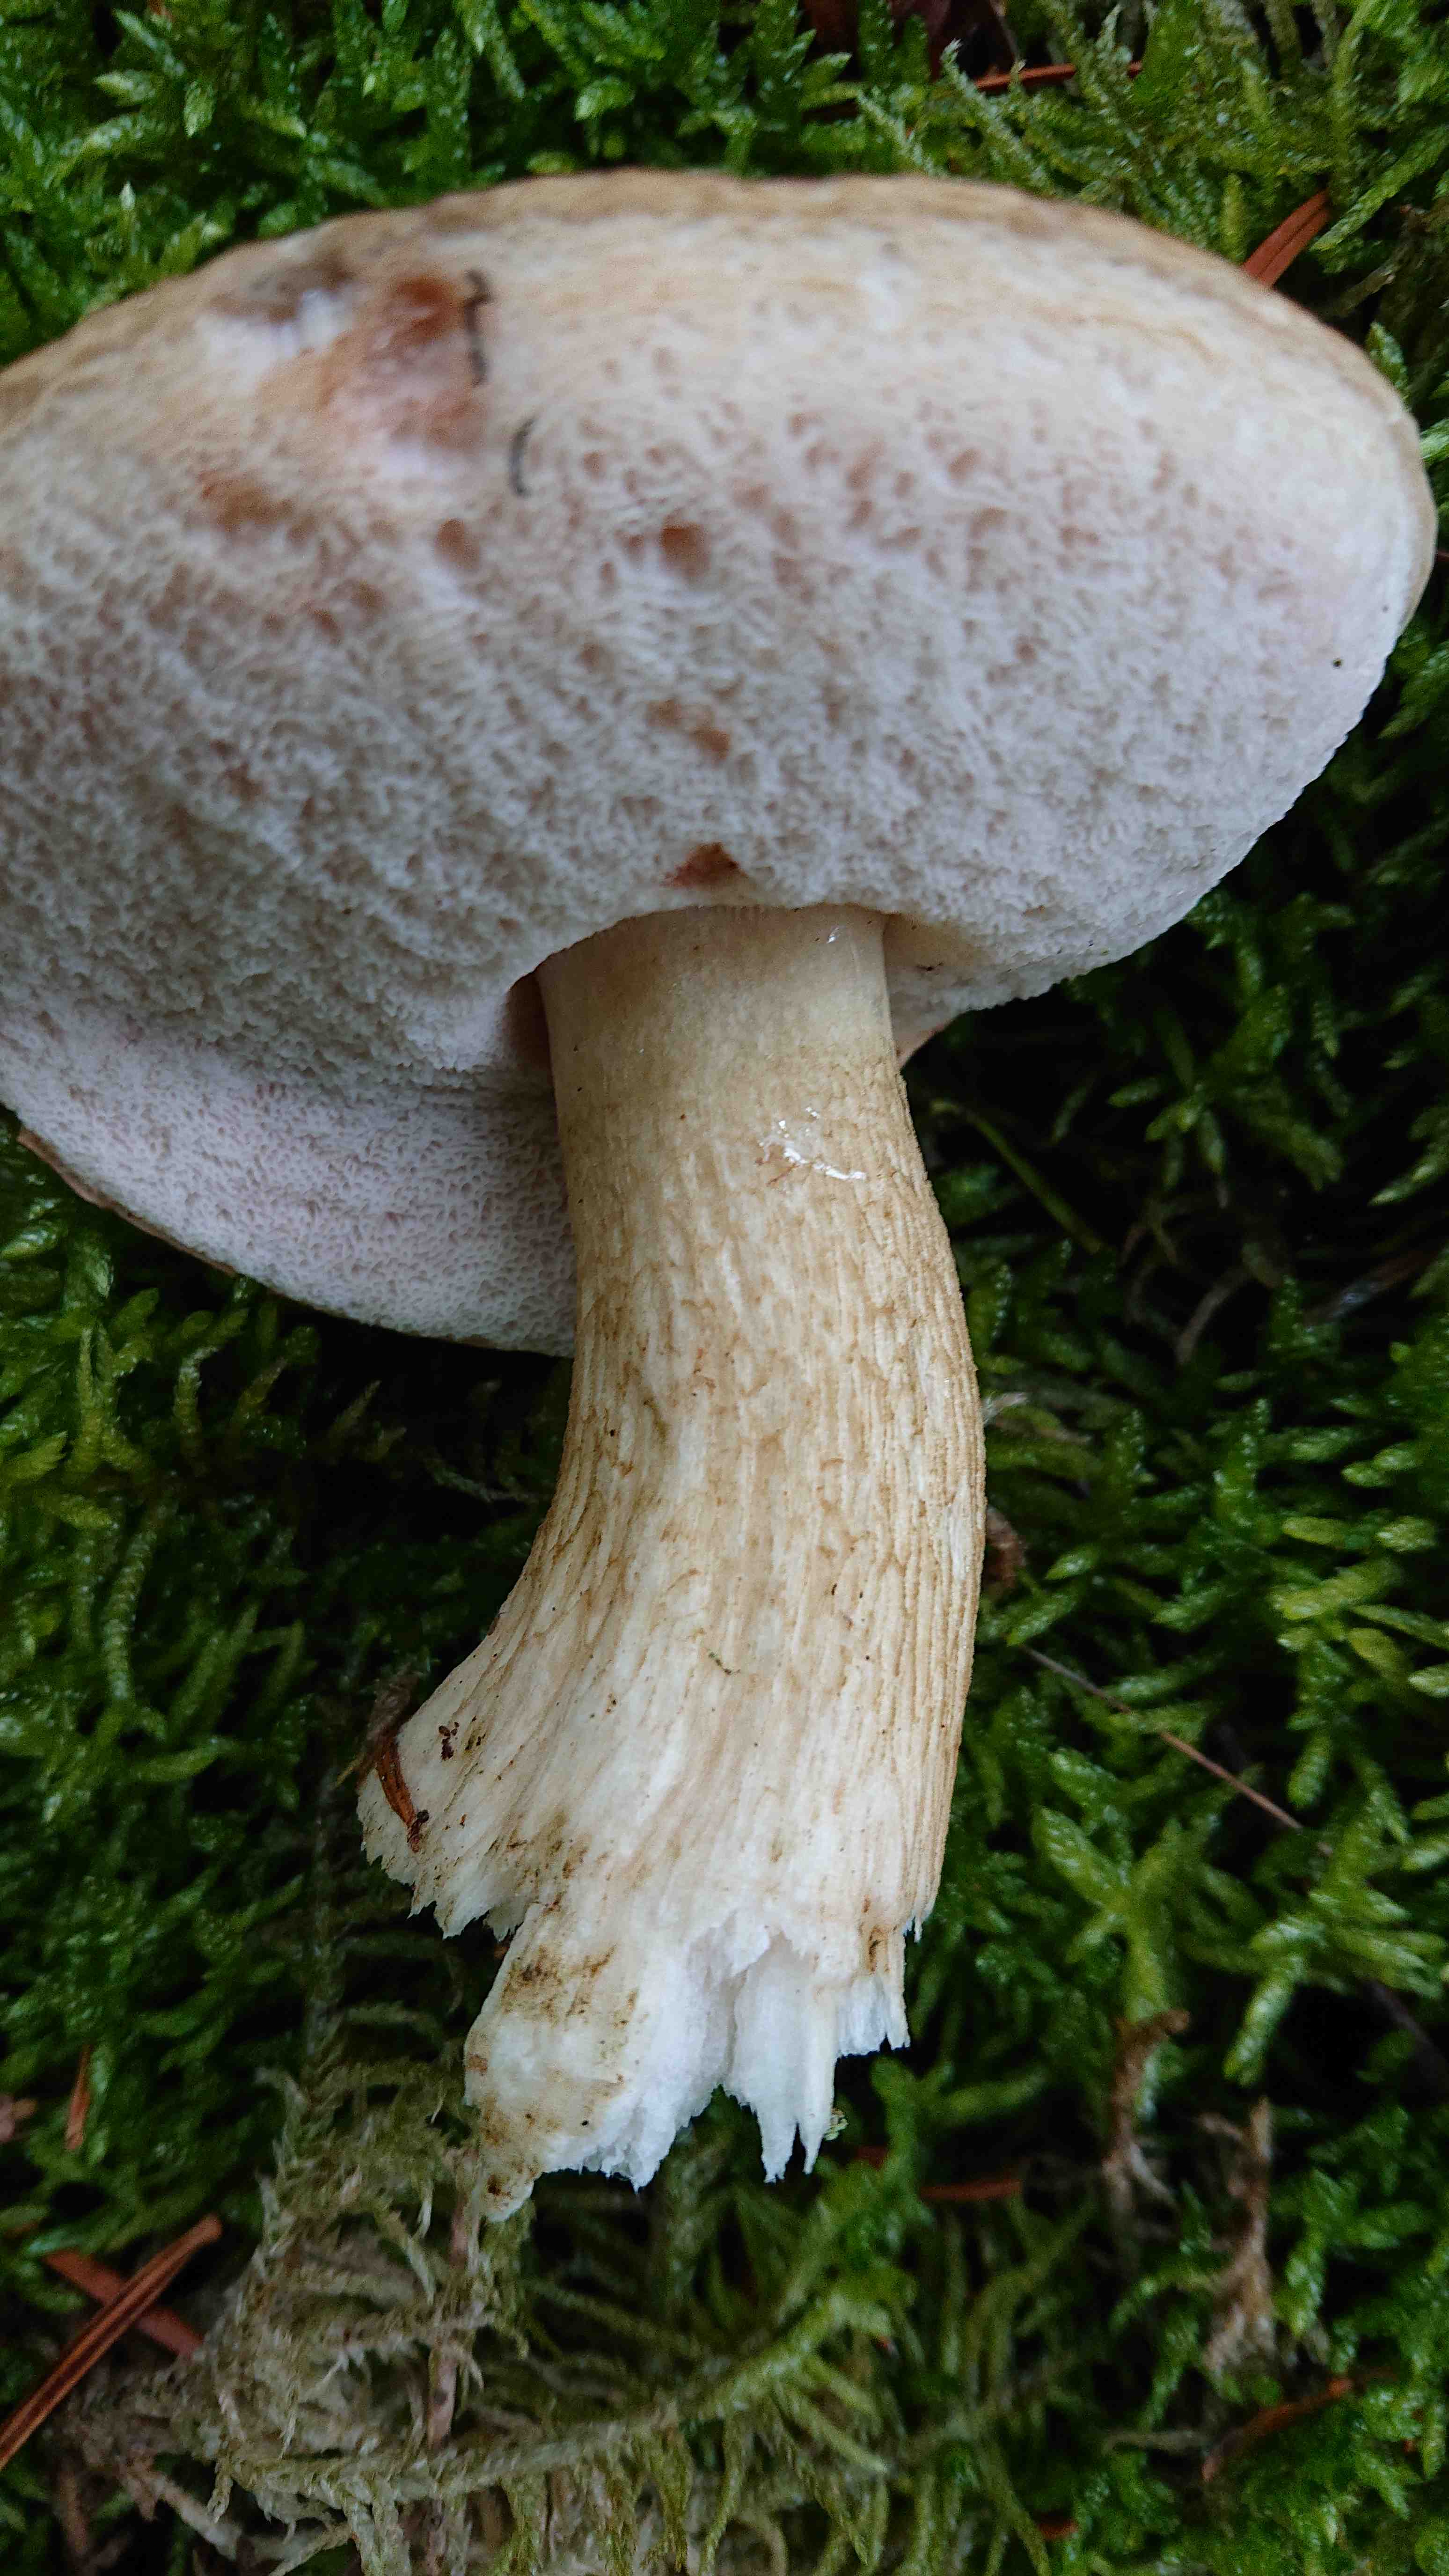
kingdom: Fungi
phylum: Basidiomycota
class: Agaricomycetes
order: Boletales
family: Boletaceae
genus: Tylopilus
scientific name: Tylopilus felleus
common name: galderørhat
